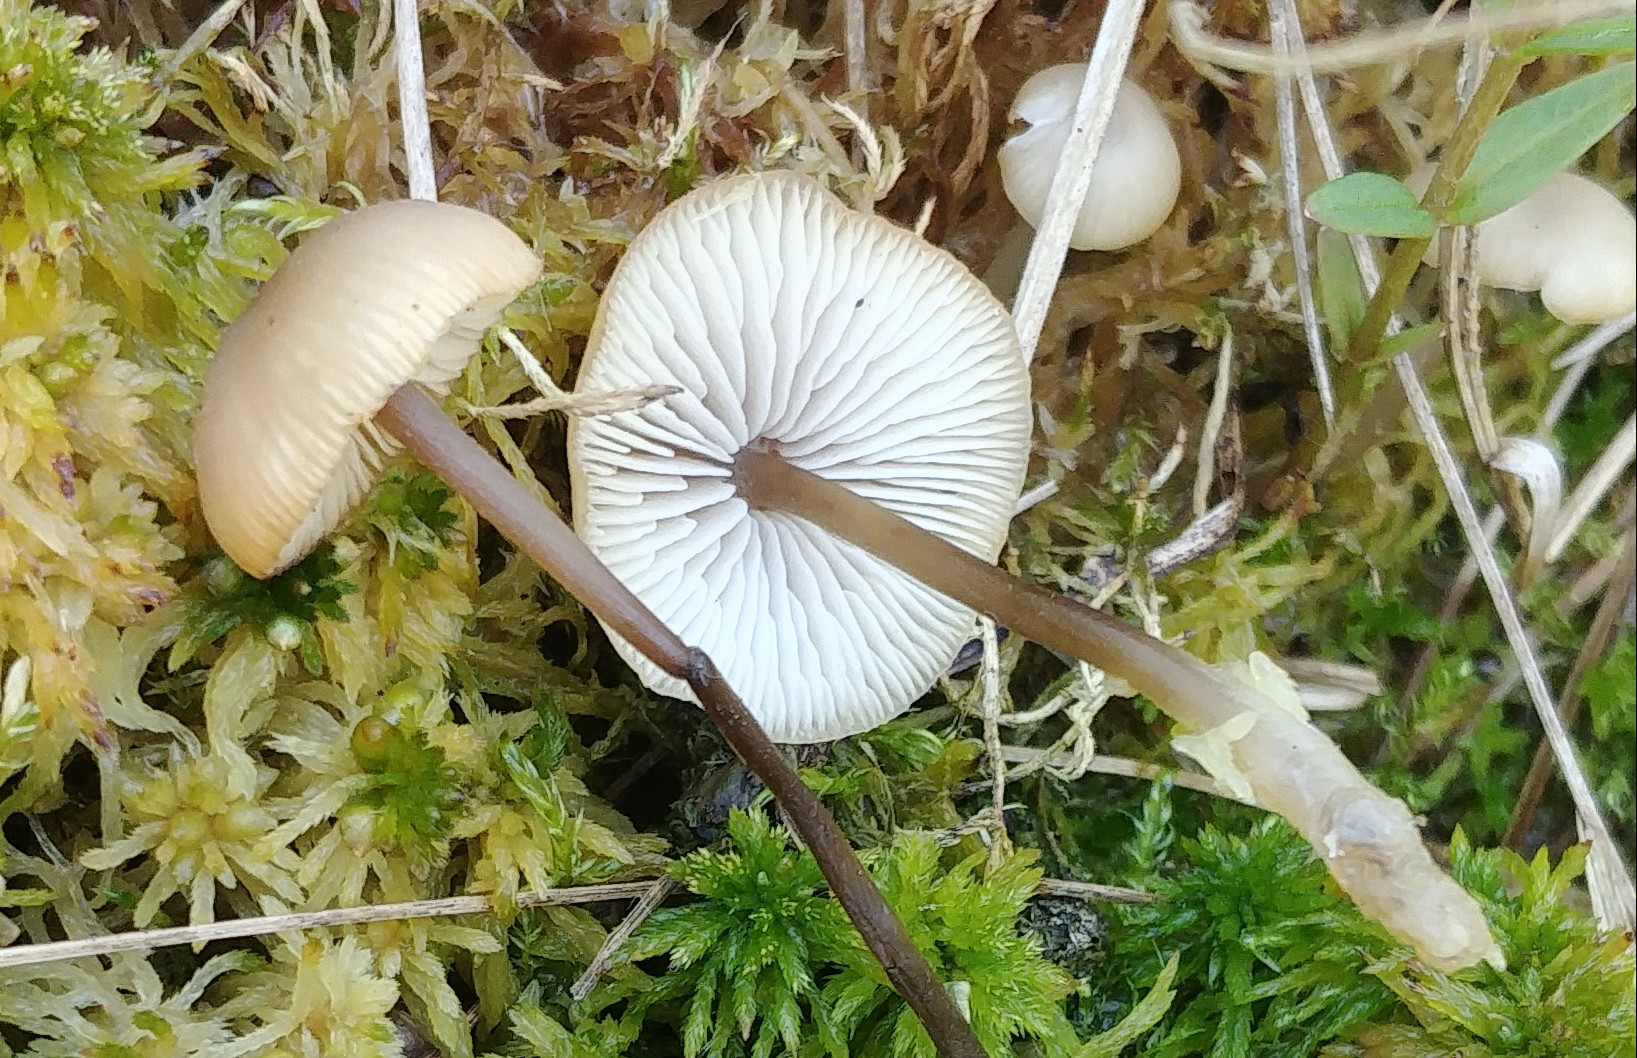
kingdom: Fungi
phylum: Basidiomycota
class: Agaricomycetes
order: Agaricales
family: Lyophyllaceae
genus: Sphagnurus
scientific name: Sphagnurus paluster
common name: tørvemos-gråblad
